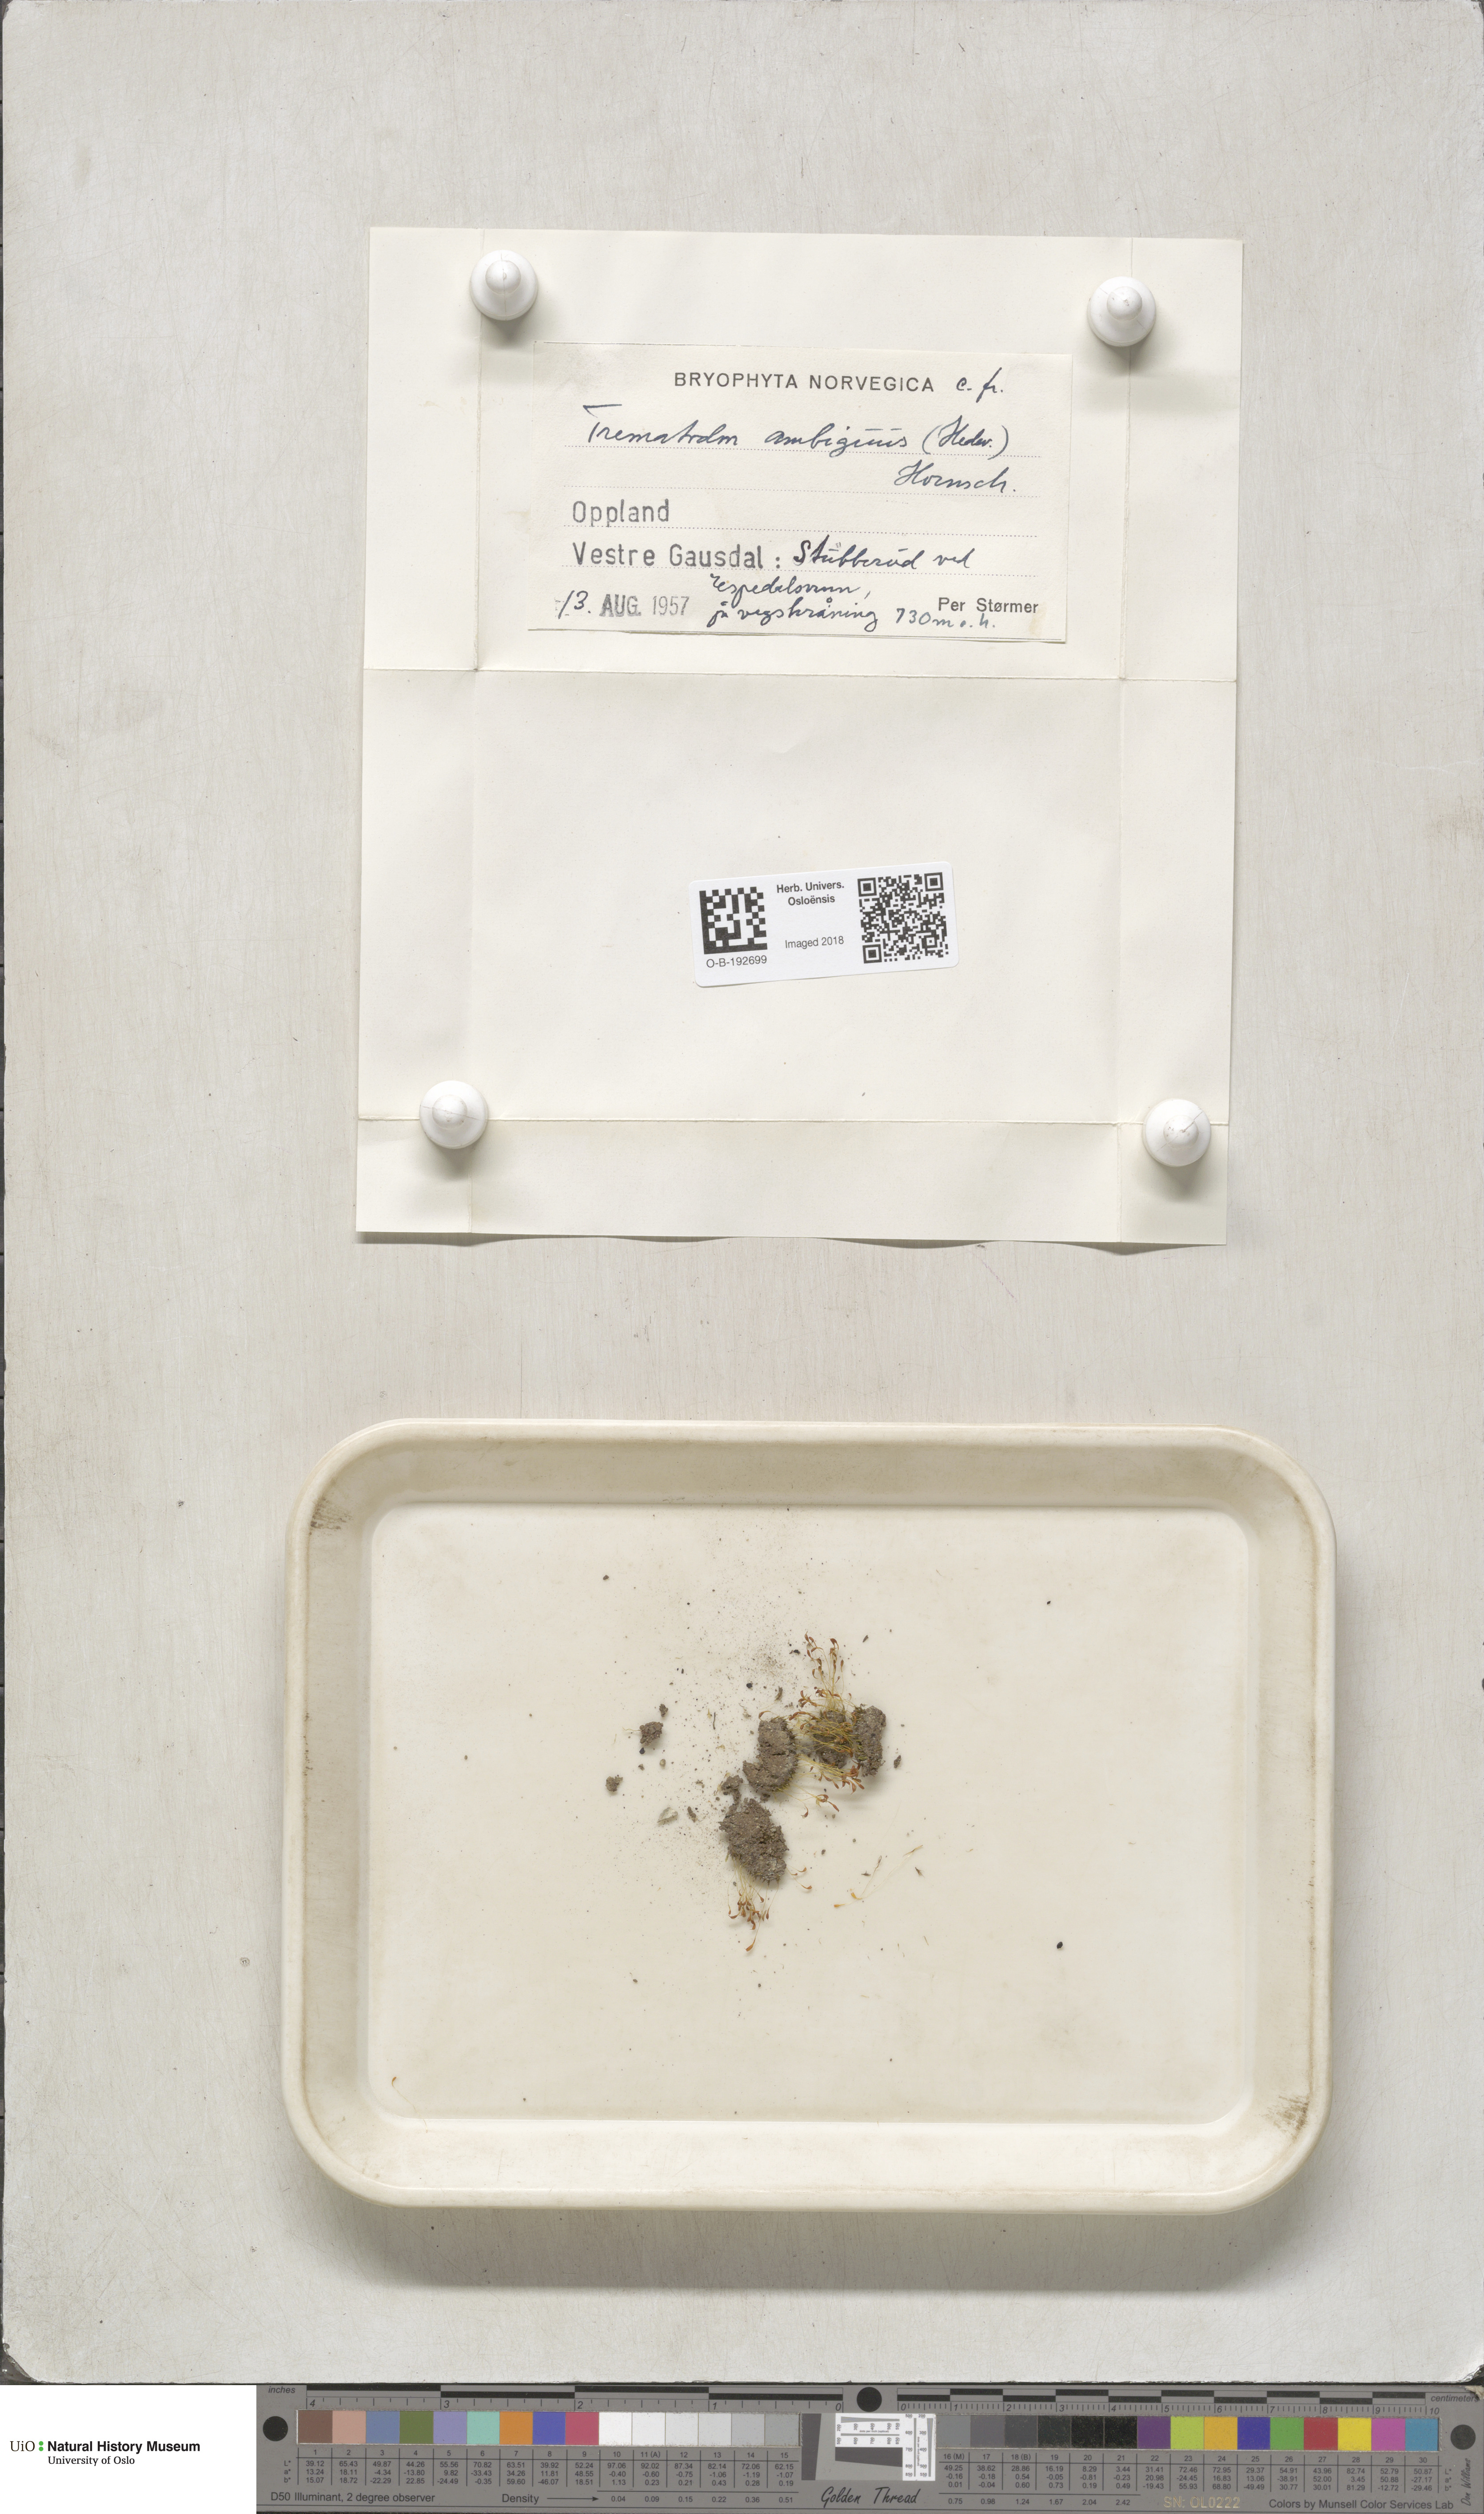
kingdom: Plantae
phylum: Bryophyta
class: Bryopsida
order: Dicranales
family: Bruchiaceae
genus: Trematodon
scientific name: Trematodon ambiguus
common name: Ambiguous long-necked moss
